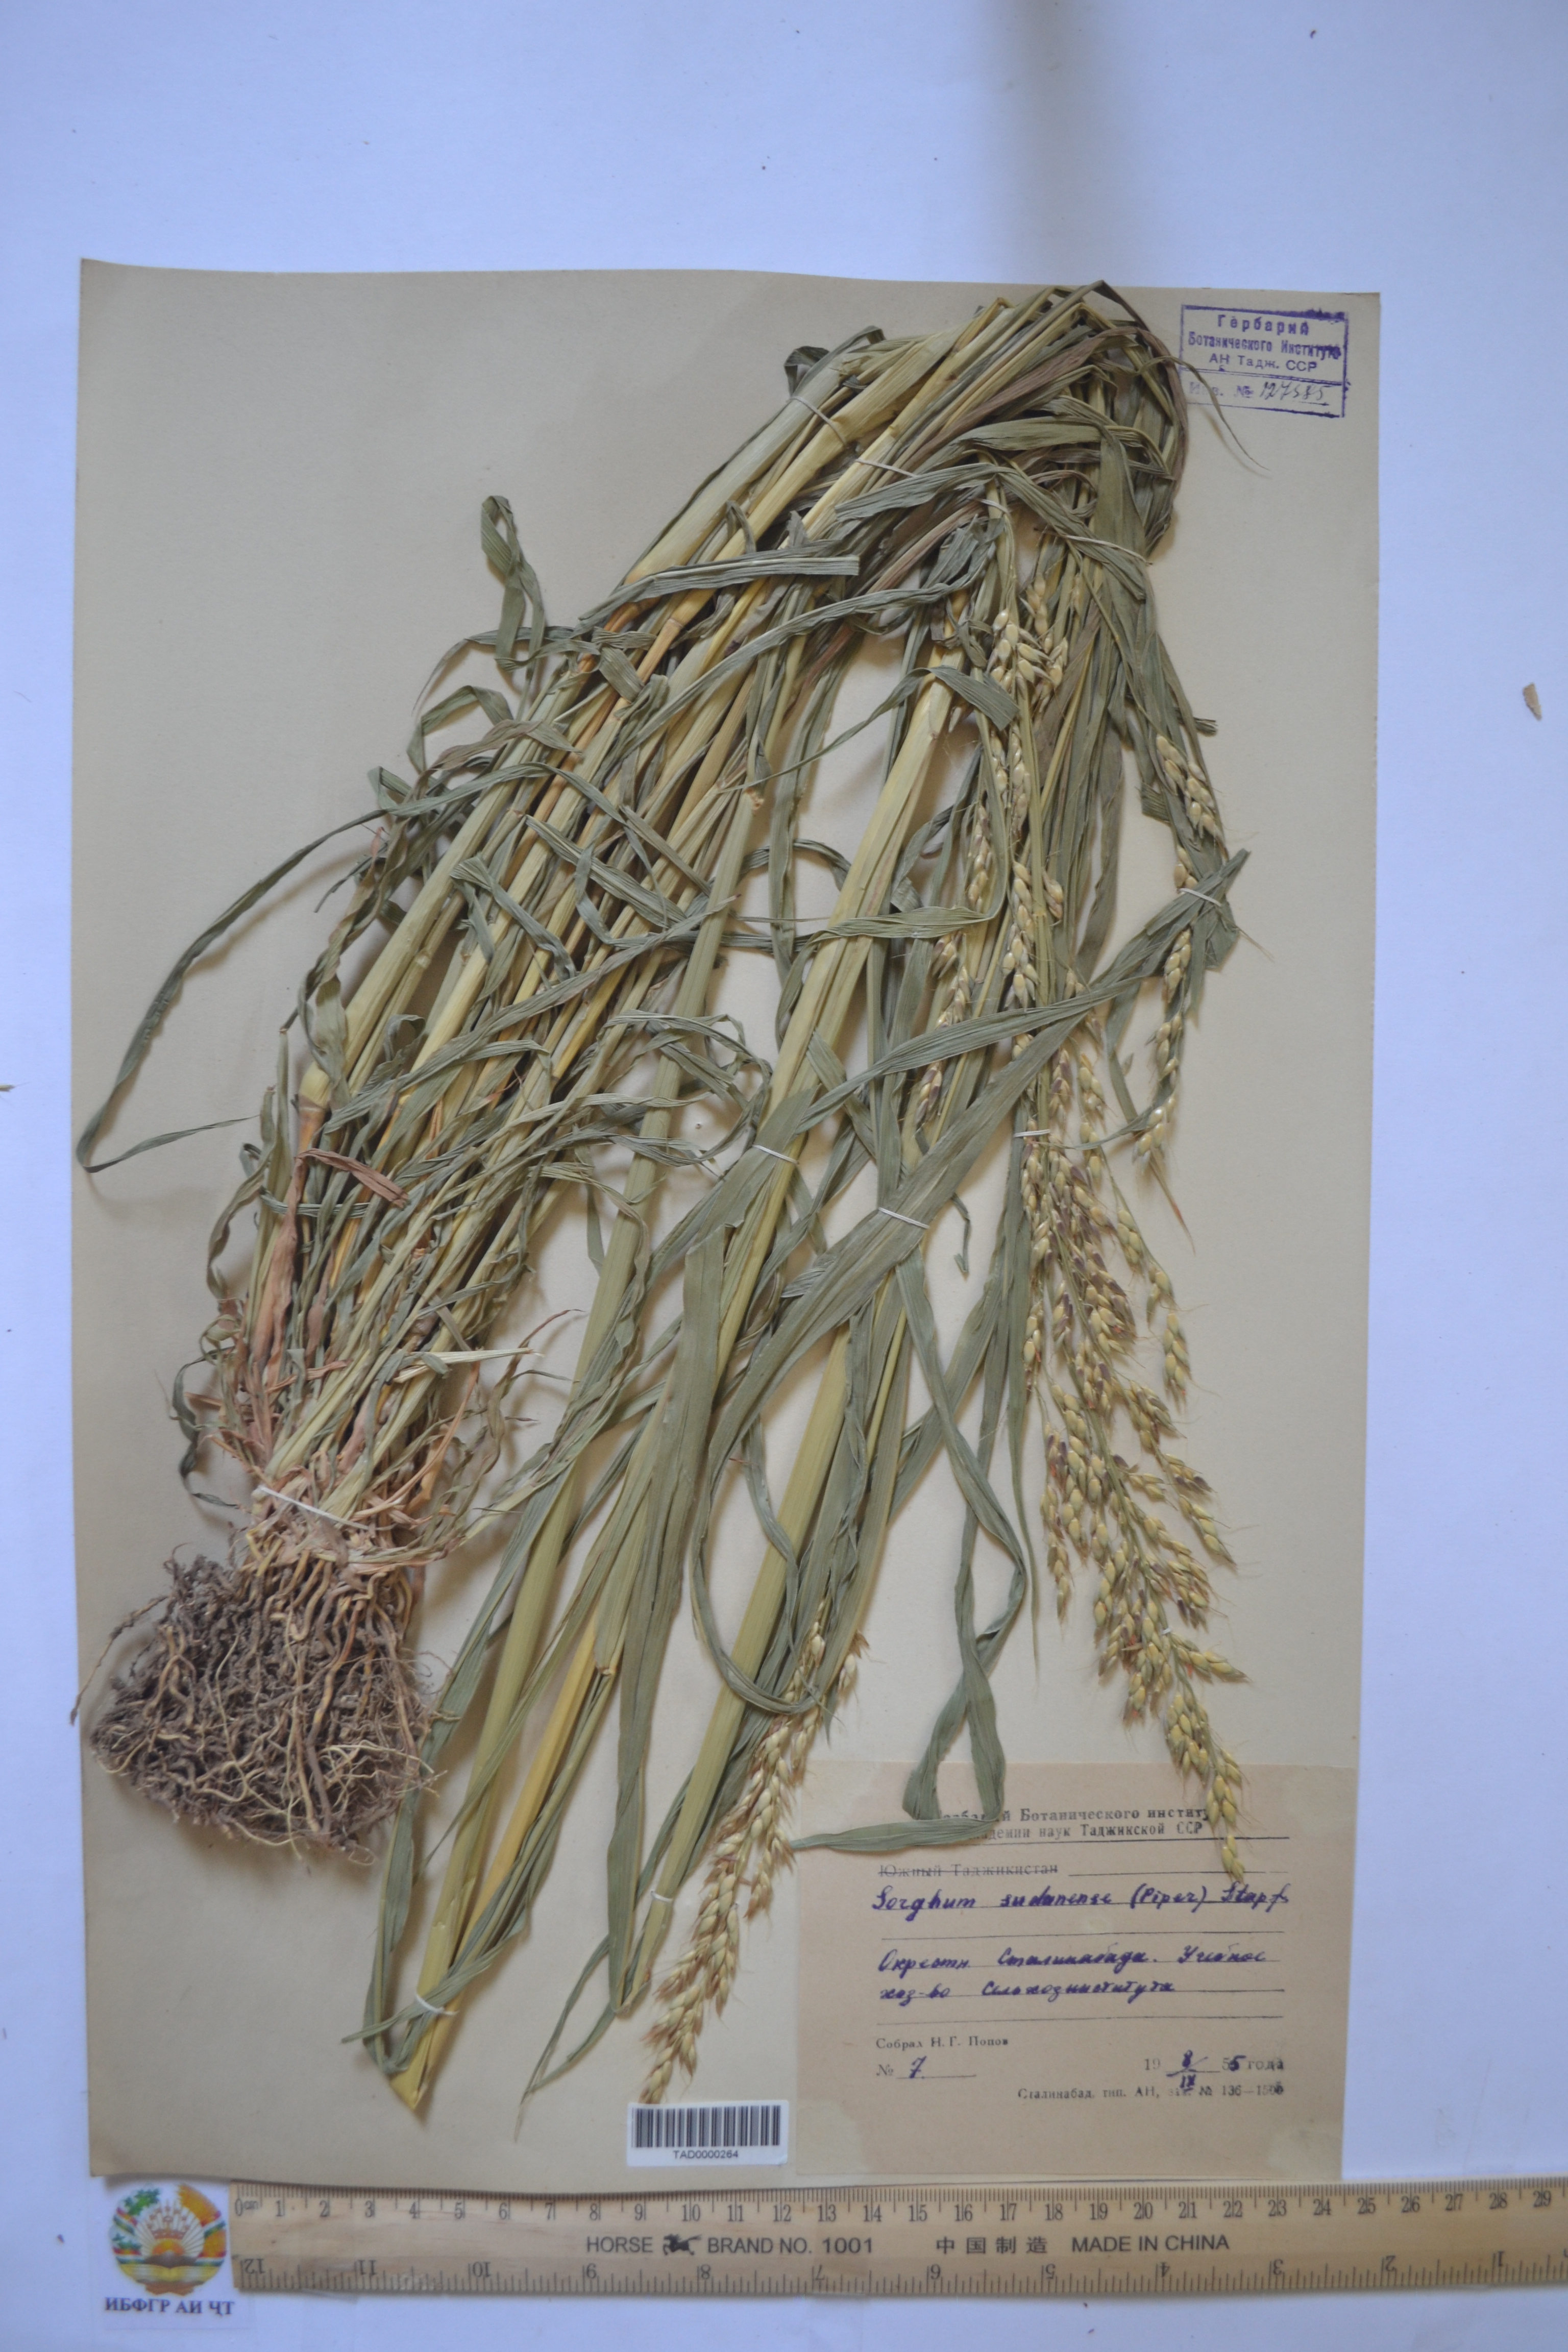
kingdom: Plantae
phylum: Tracheophyta
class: Liliopsida
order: Poales
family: Poaceae
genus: Sorghum
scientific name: Sorghum drummondii
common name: Sudangrass
